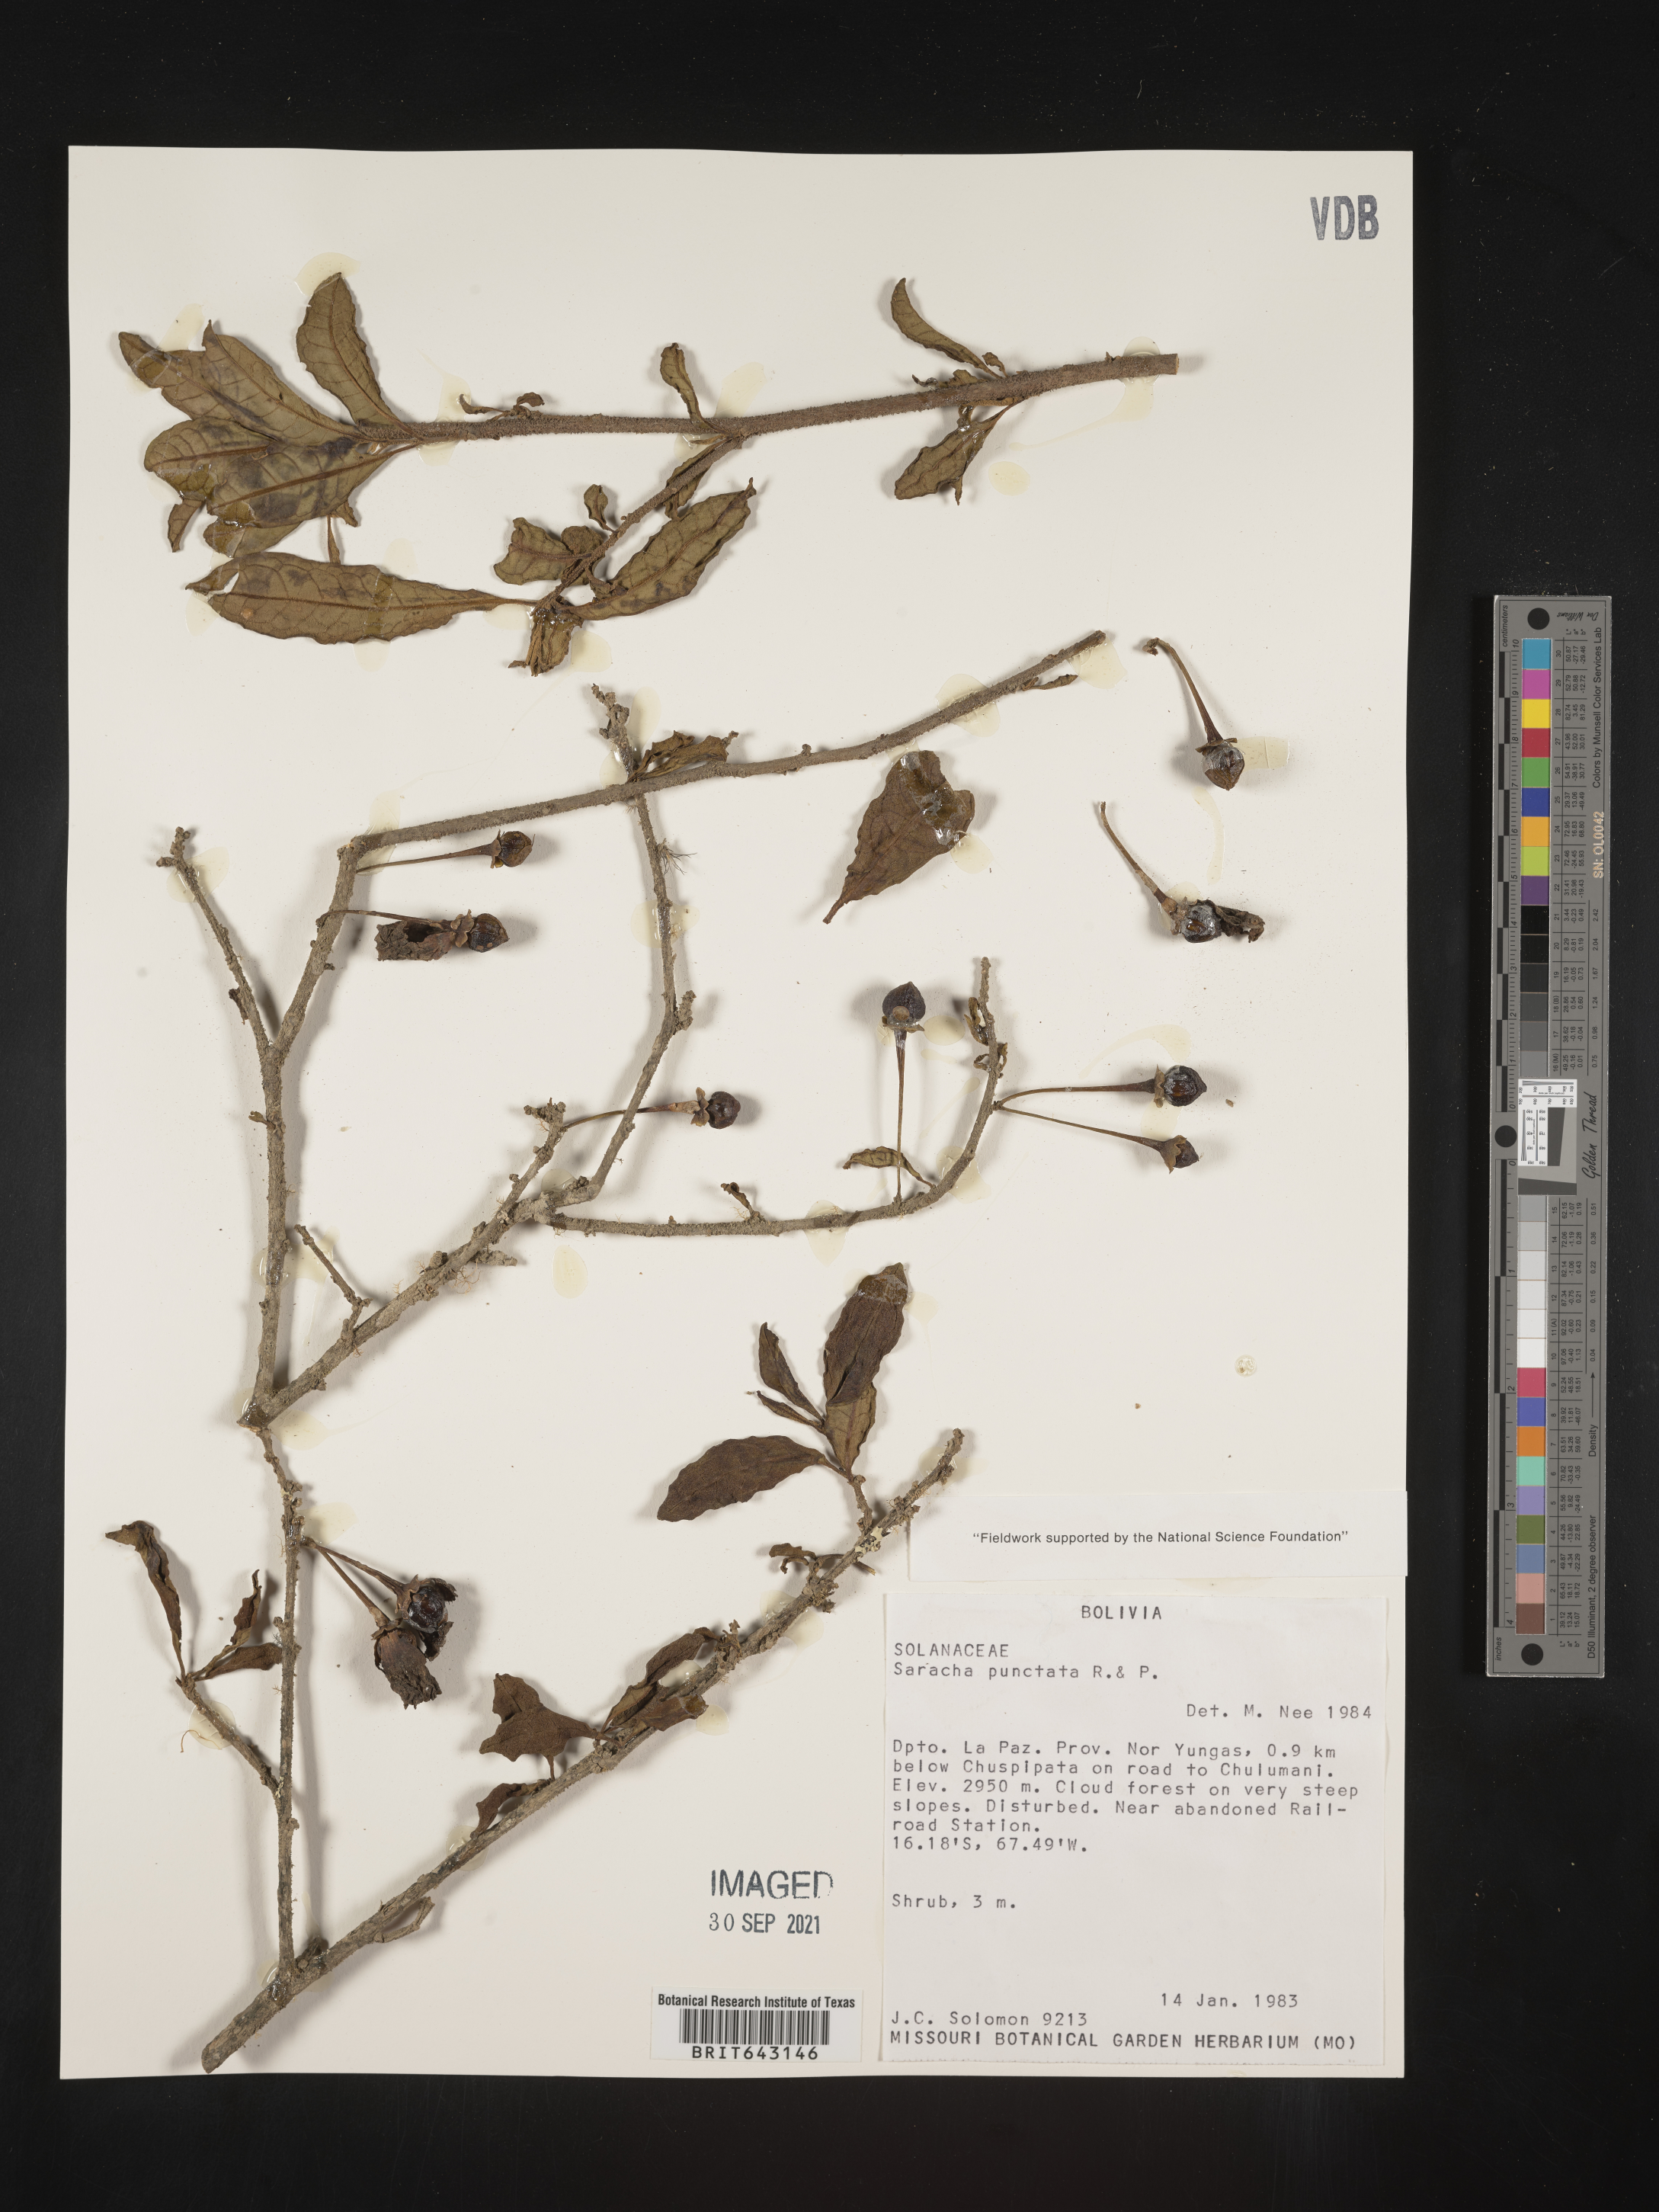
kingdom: Plantae
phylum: Tracheophyta
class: Magnoliopsida
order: Solanales
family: Solanaceae
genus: Saracha
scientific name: Saracha
